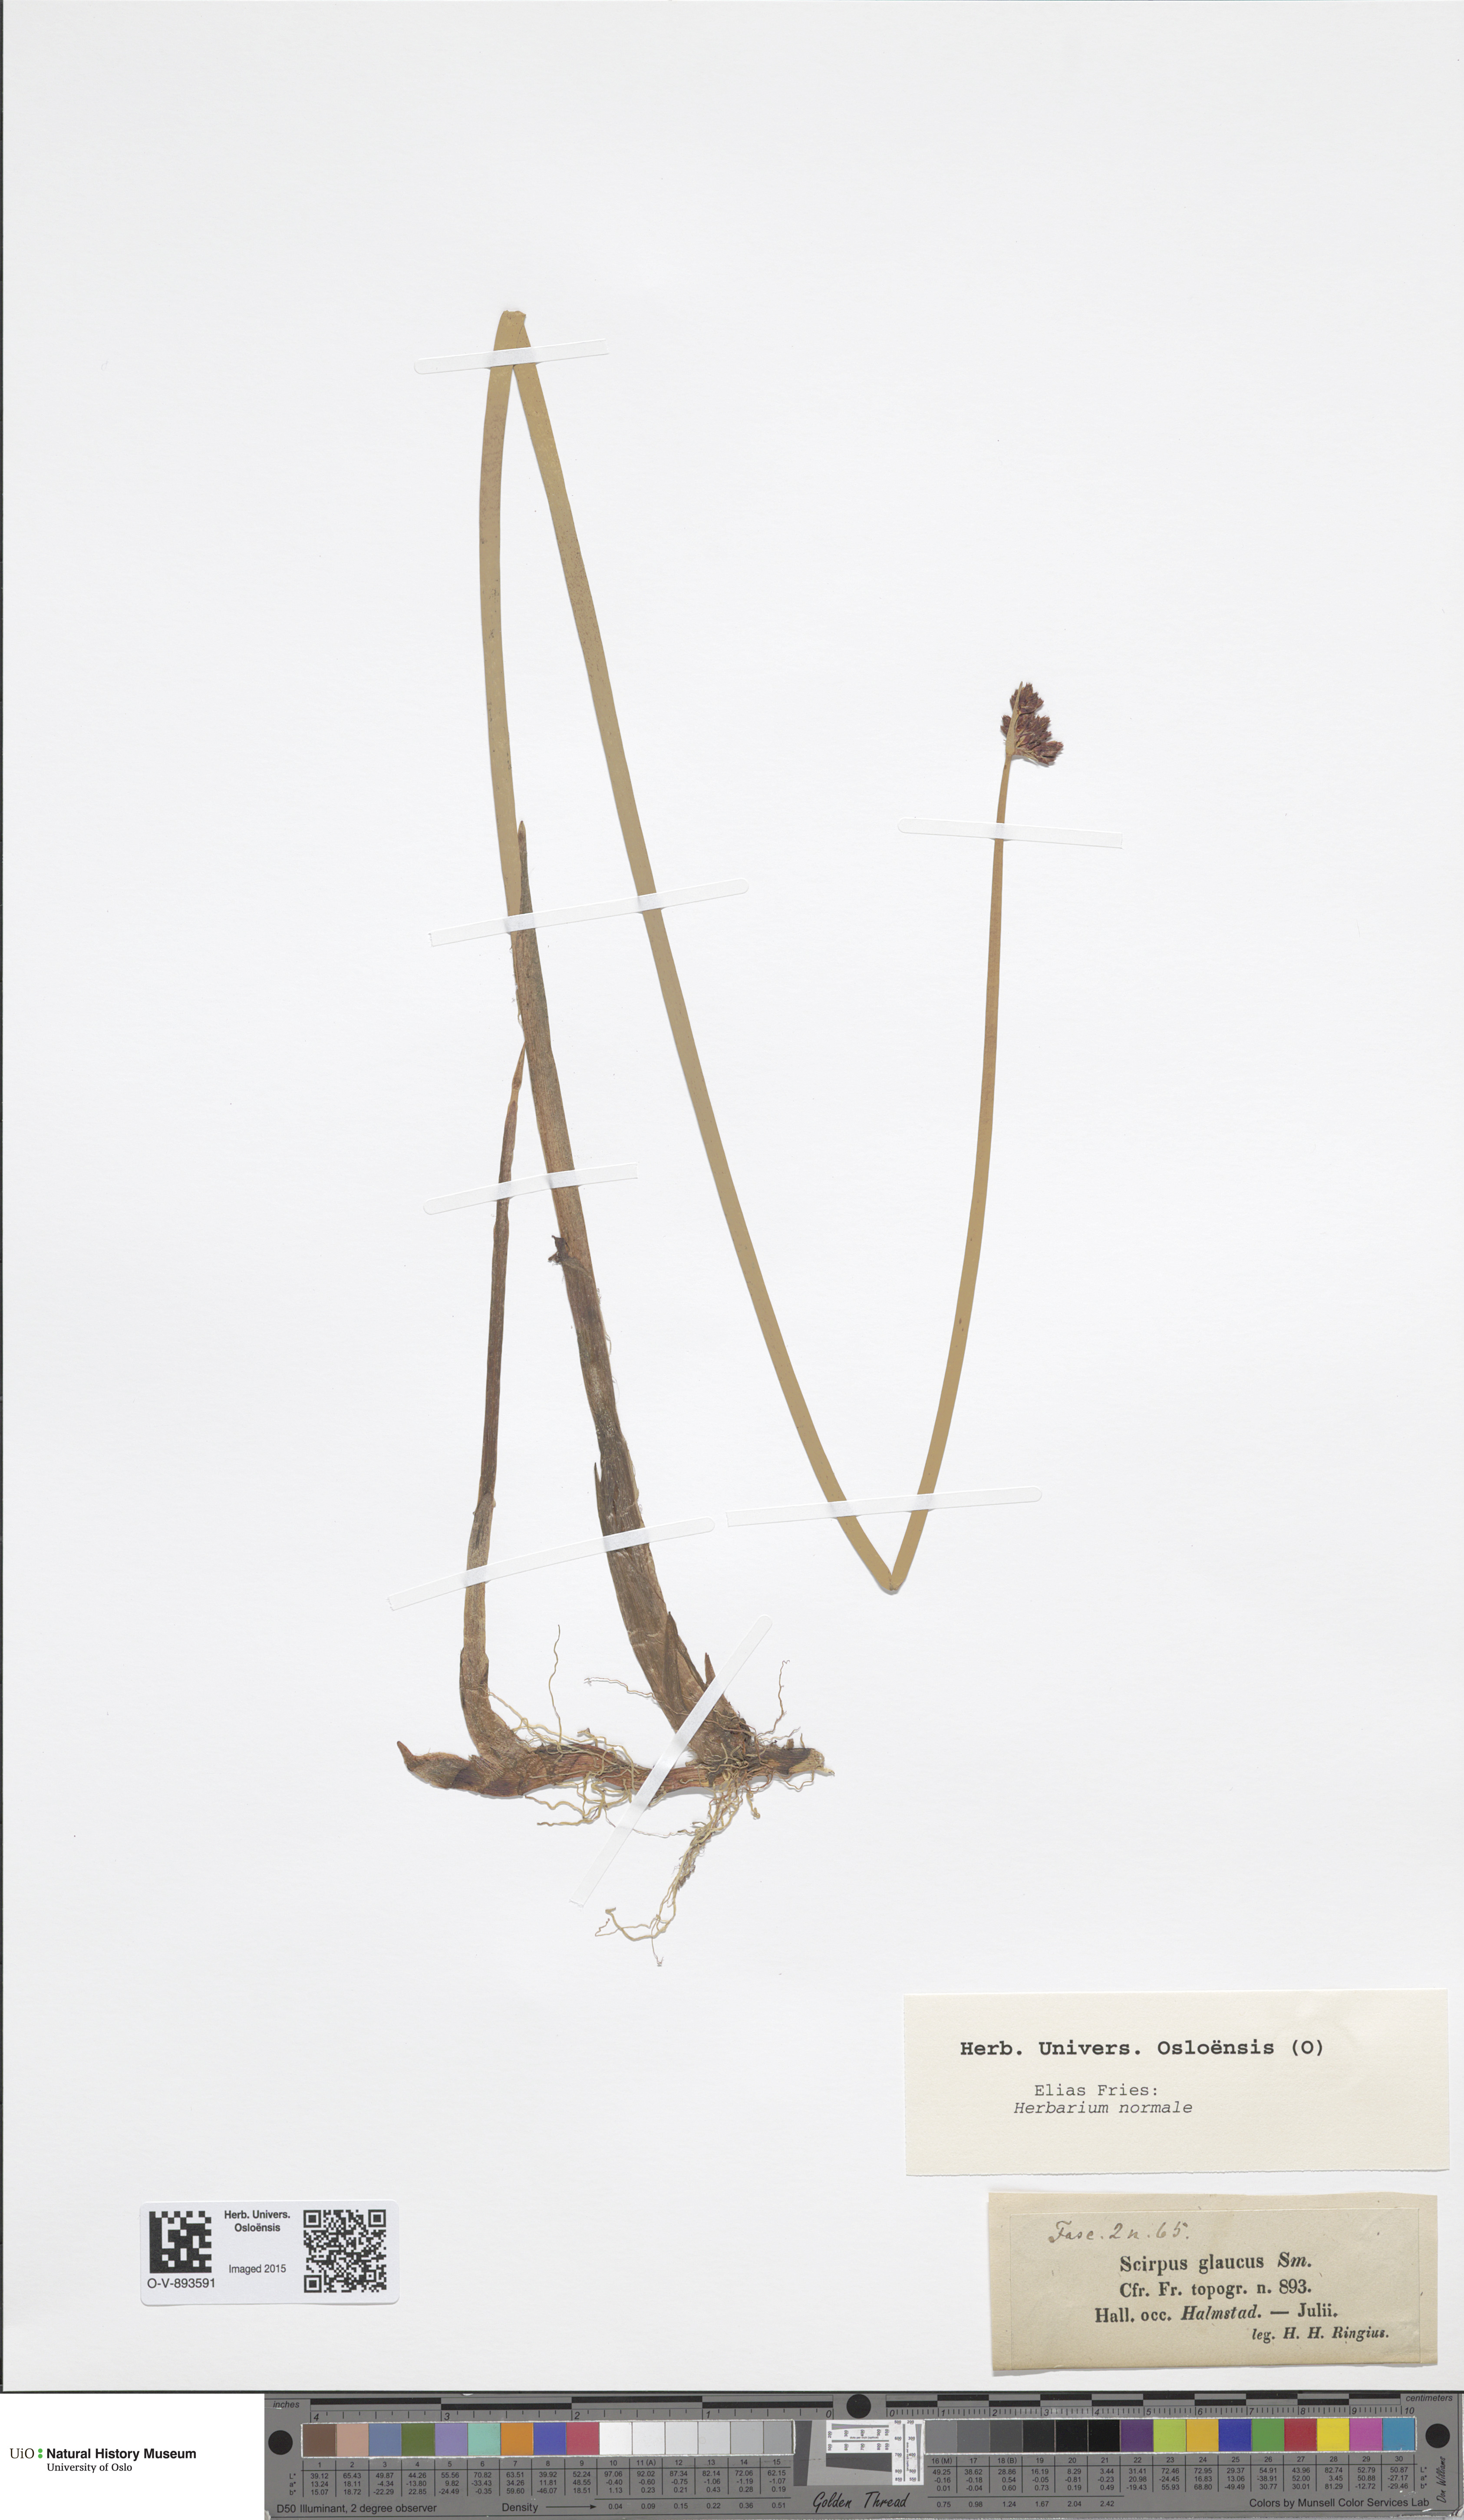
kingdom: Plantae
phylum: Tracheophyta
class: Liliopsida
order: Poales
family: Cyperaceae
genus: Schoenoplectus
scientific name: Schoenoplectus tabernaemontani
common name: Grey club-rush
